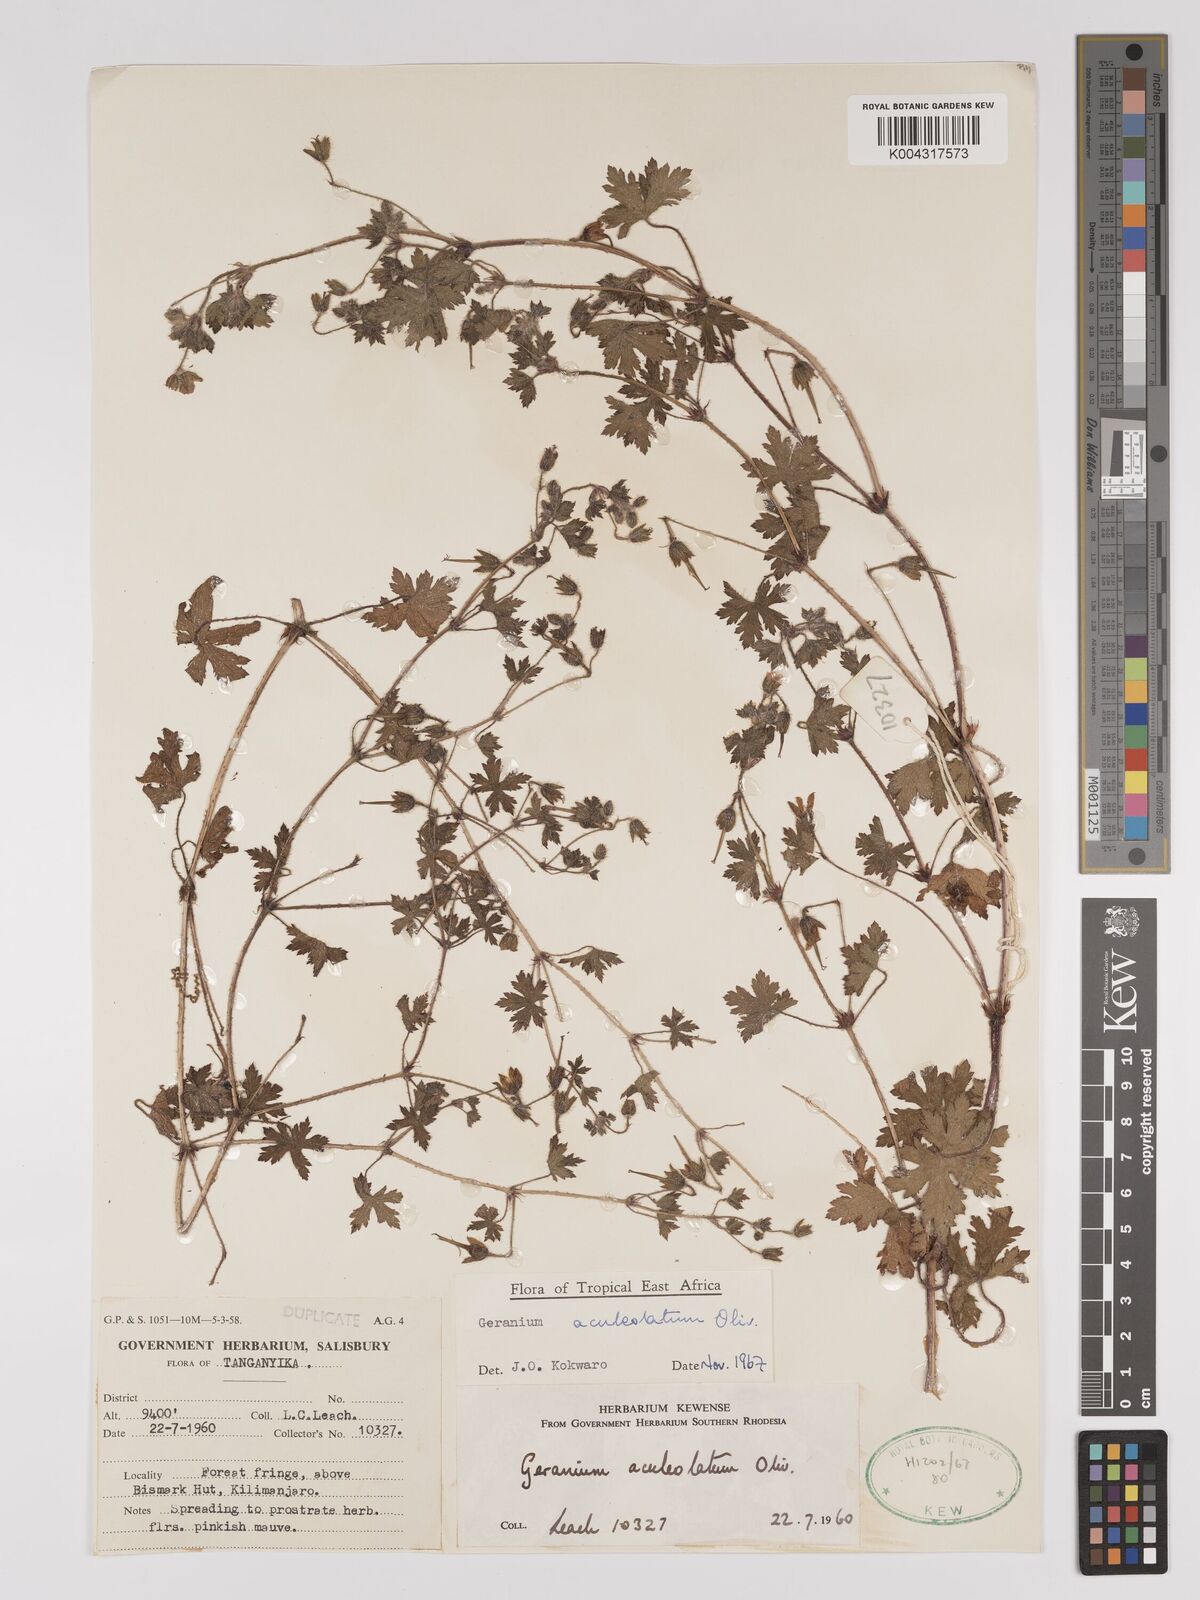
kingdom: Plantae
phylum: Tracheophyta
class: Magnoliopsida
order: Geraniales
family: Geraniaceae
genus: Geranium
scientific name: Geranium aculeolatum
